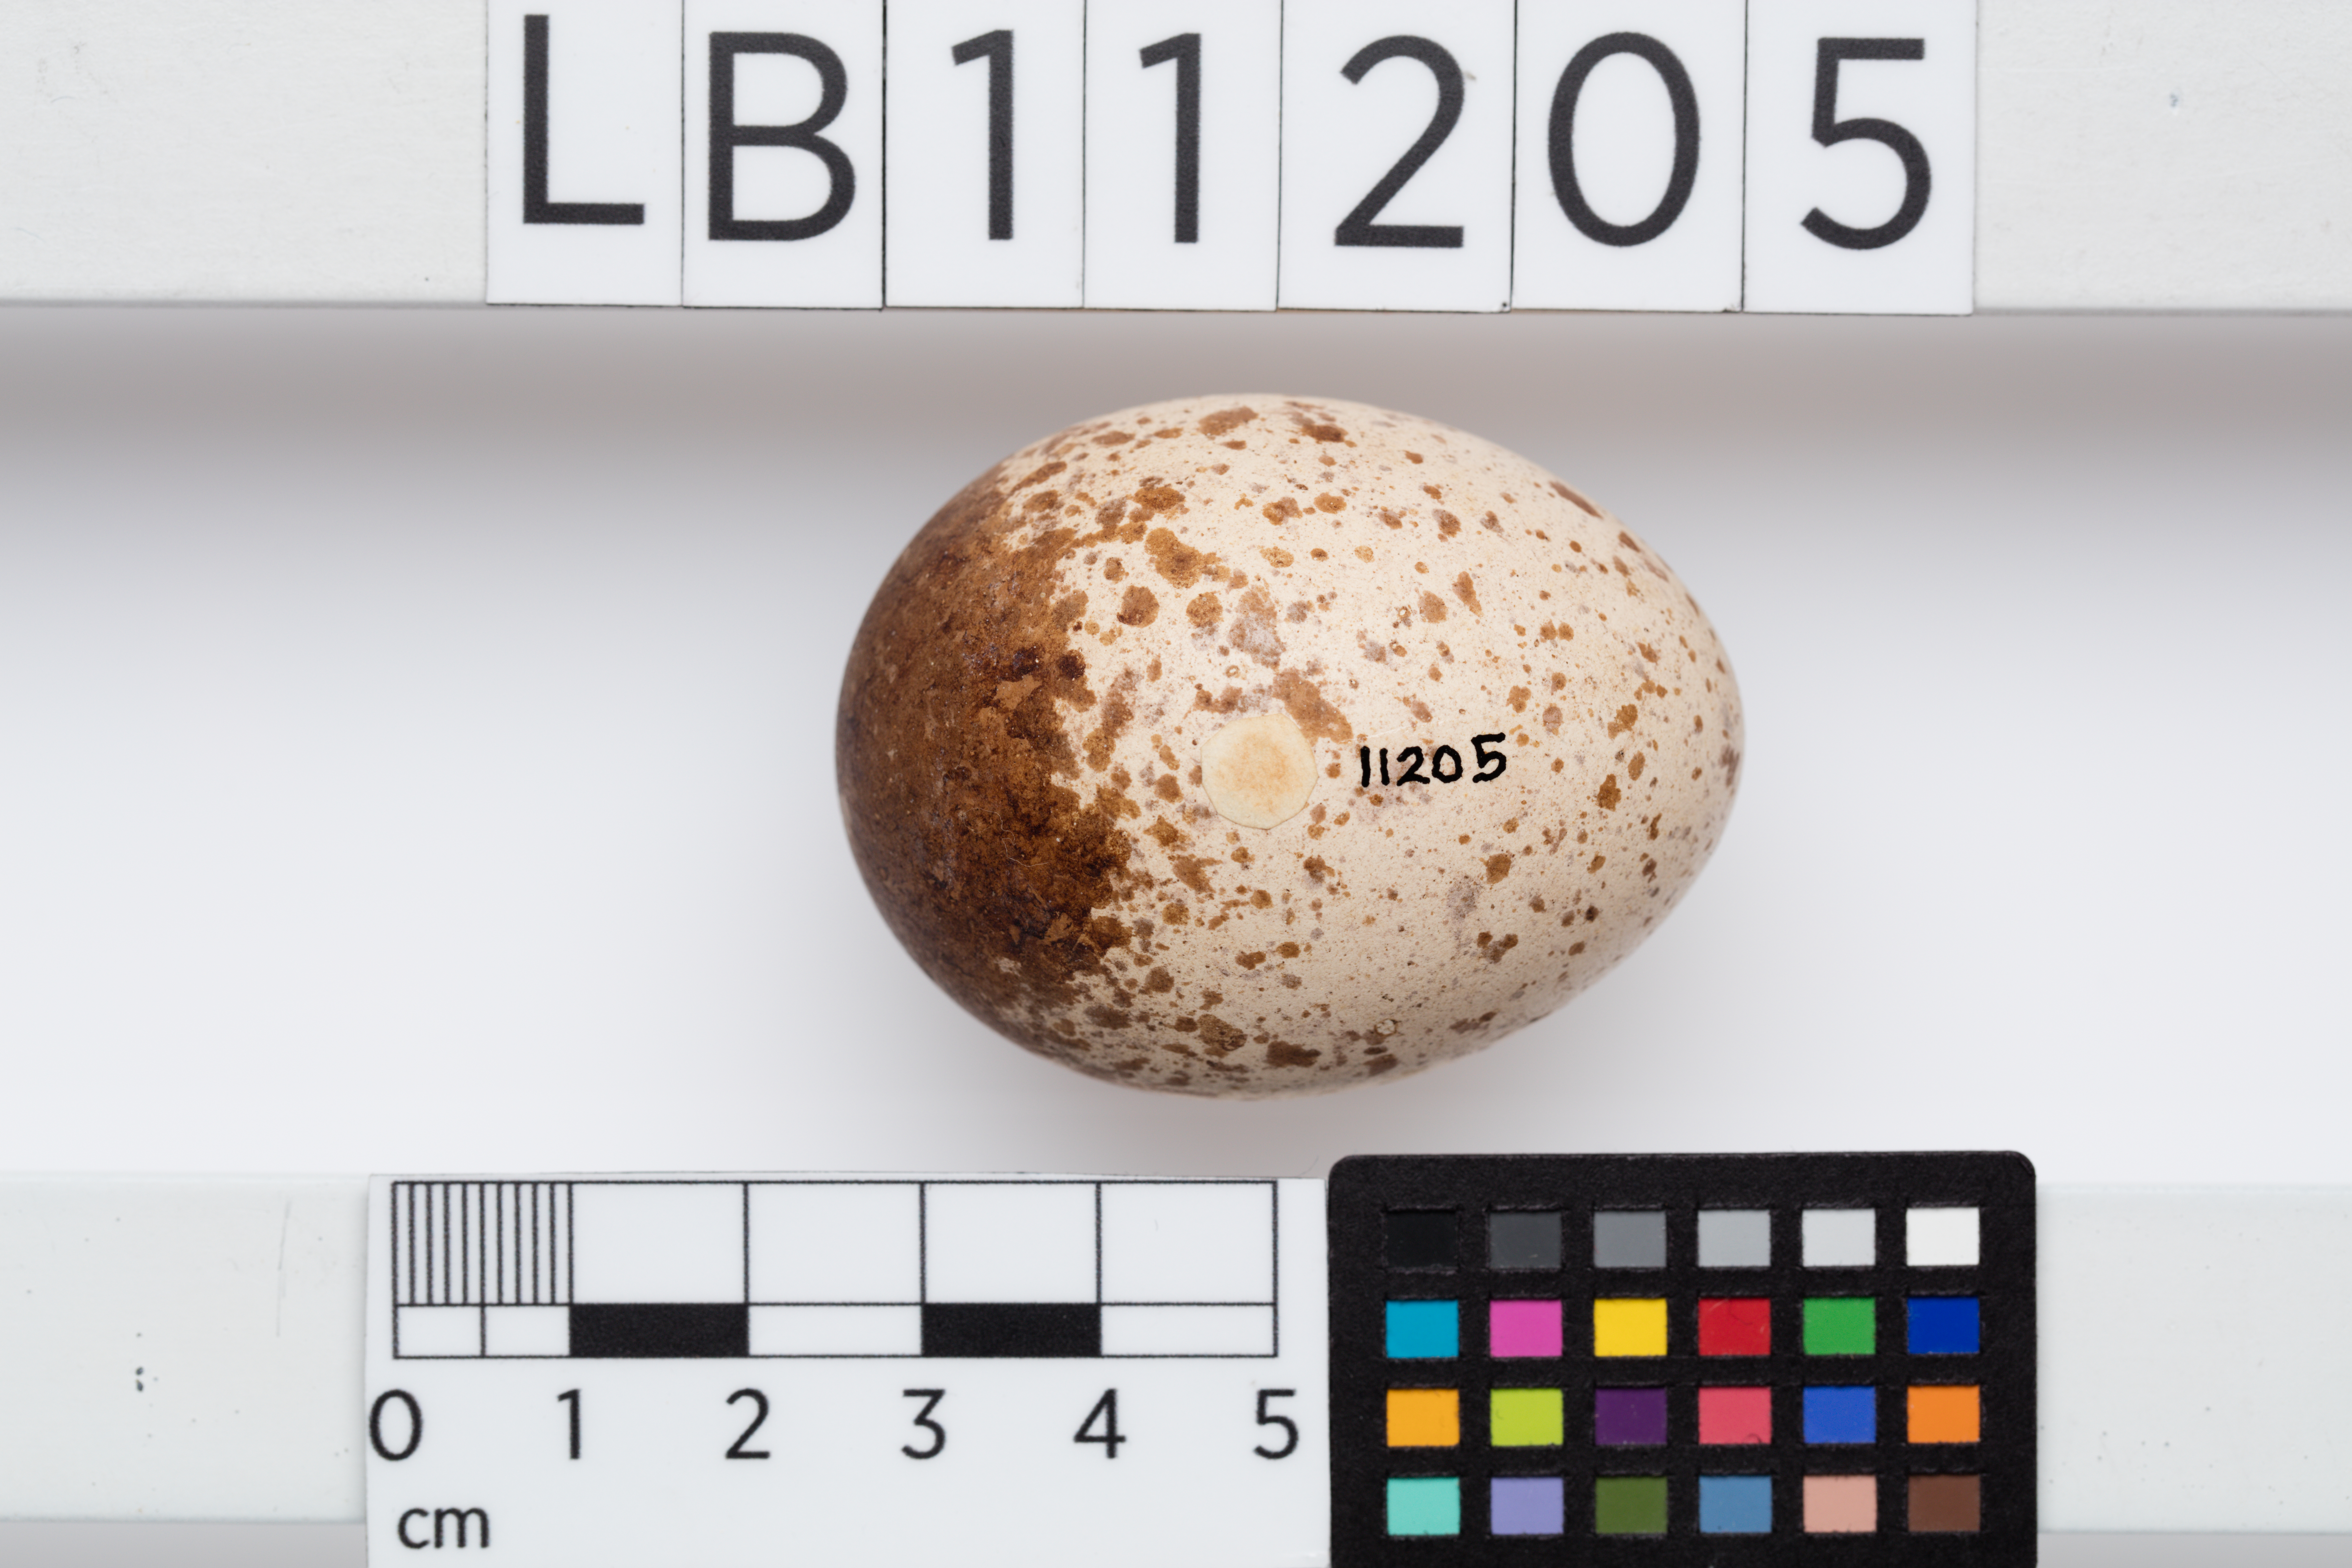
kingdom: Animalia
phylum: Chordata
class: Aves
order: Falconiformes
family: Falconidae
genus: Falco
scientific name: Falco berigora
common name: Brown falcon
